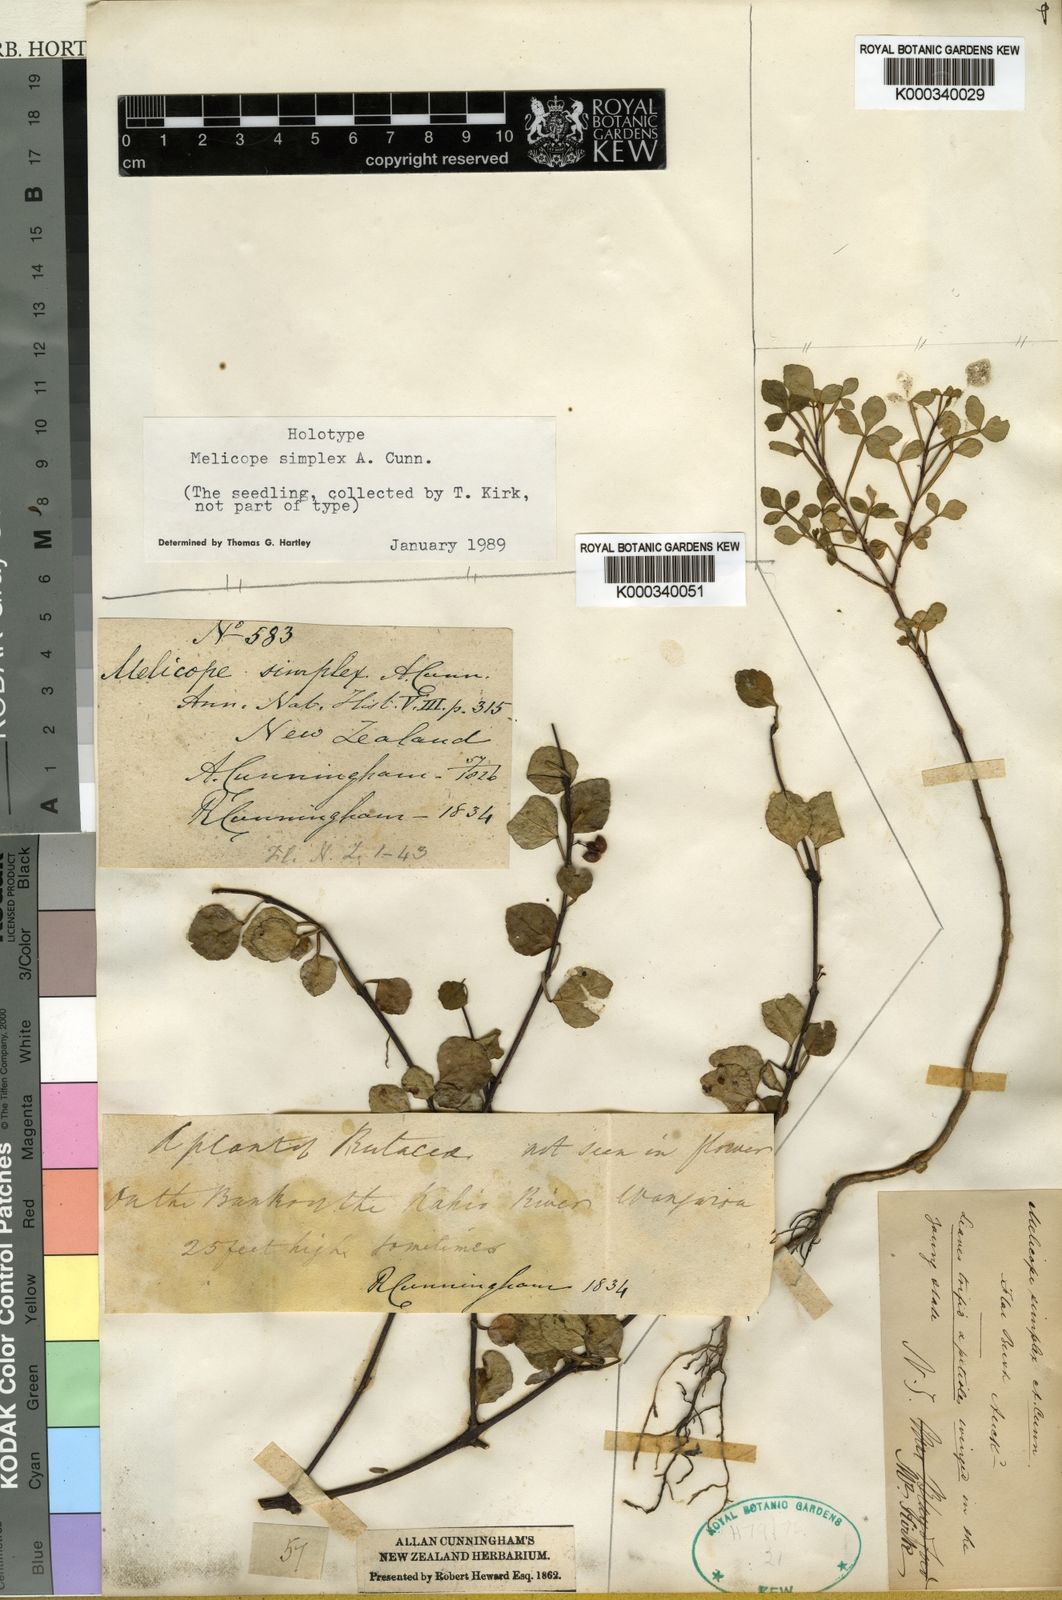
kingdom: Plantae
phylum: Tracheophyta
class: Magnoliopsida
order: Sapindales
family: Rutaceae
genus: Melicope
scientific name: Melicope simplex
